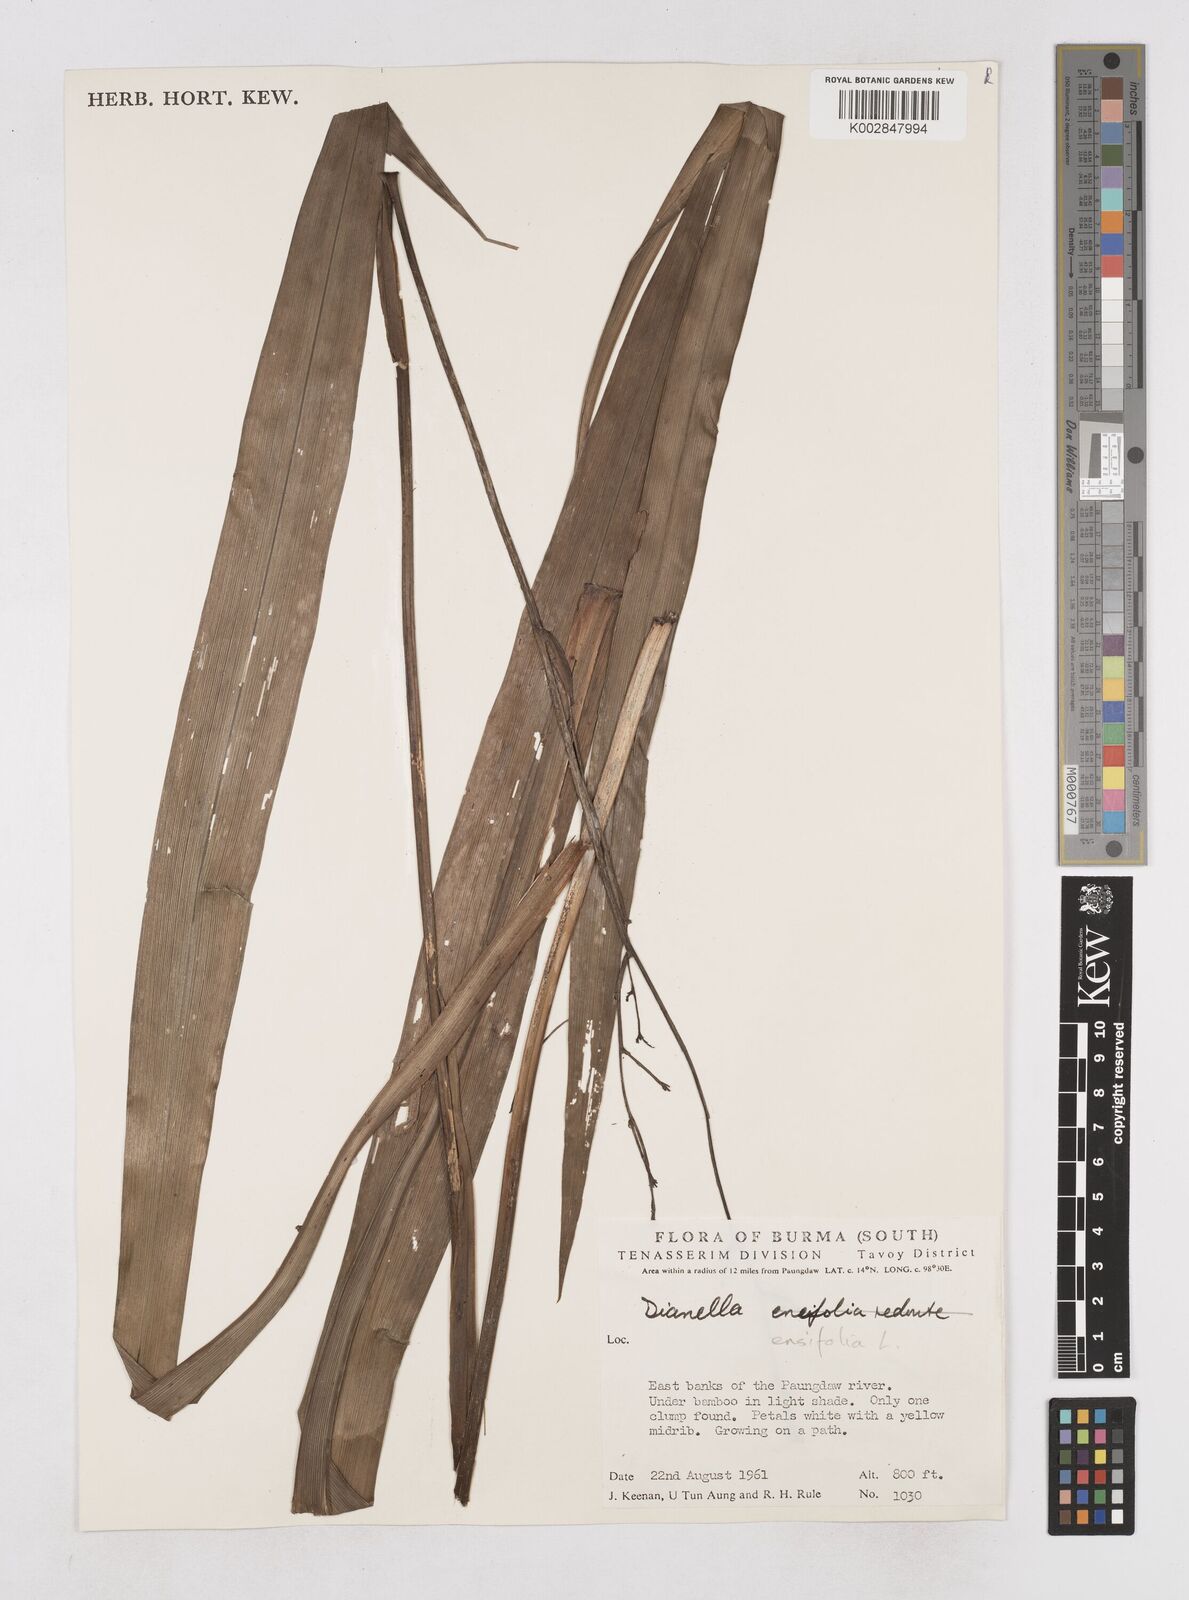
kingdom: Plantae
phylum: Tracheophyta
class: Liliopsida
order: Asparagales
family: Asphodelaceae
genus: Dianella
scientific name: Dianella ensifolia
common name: New zealand lilyplant
